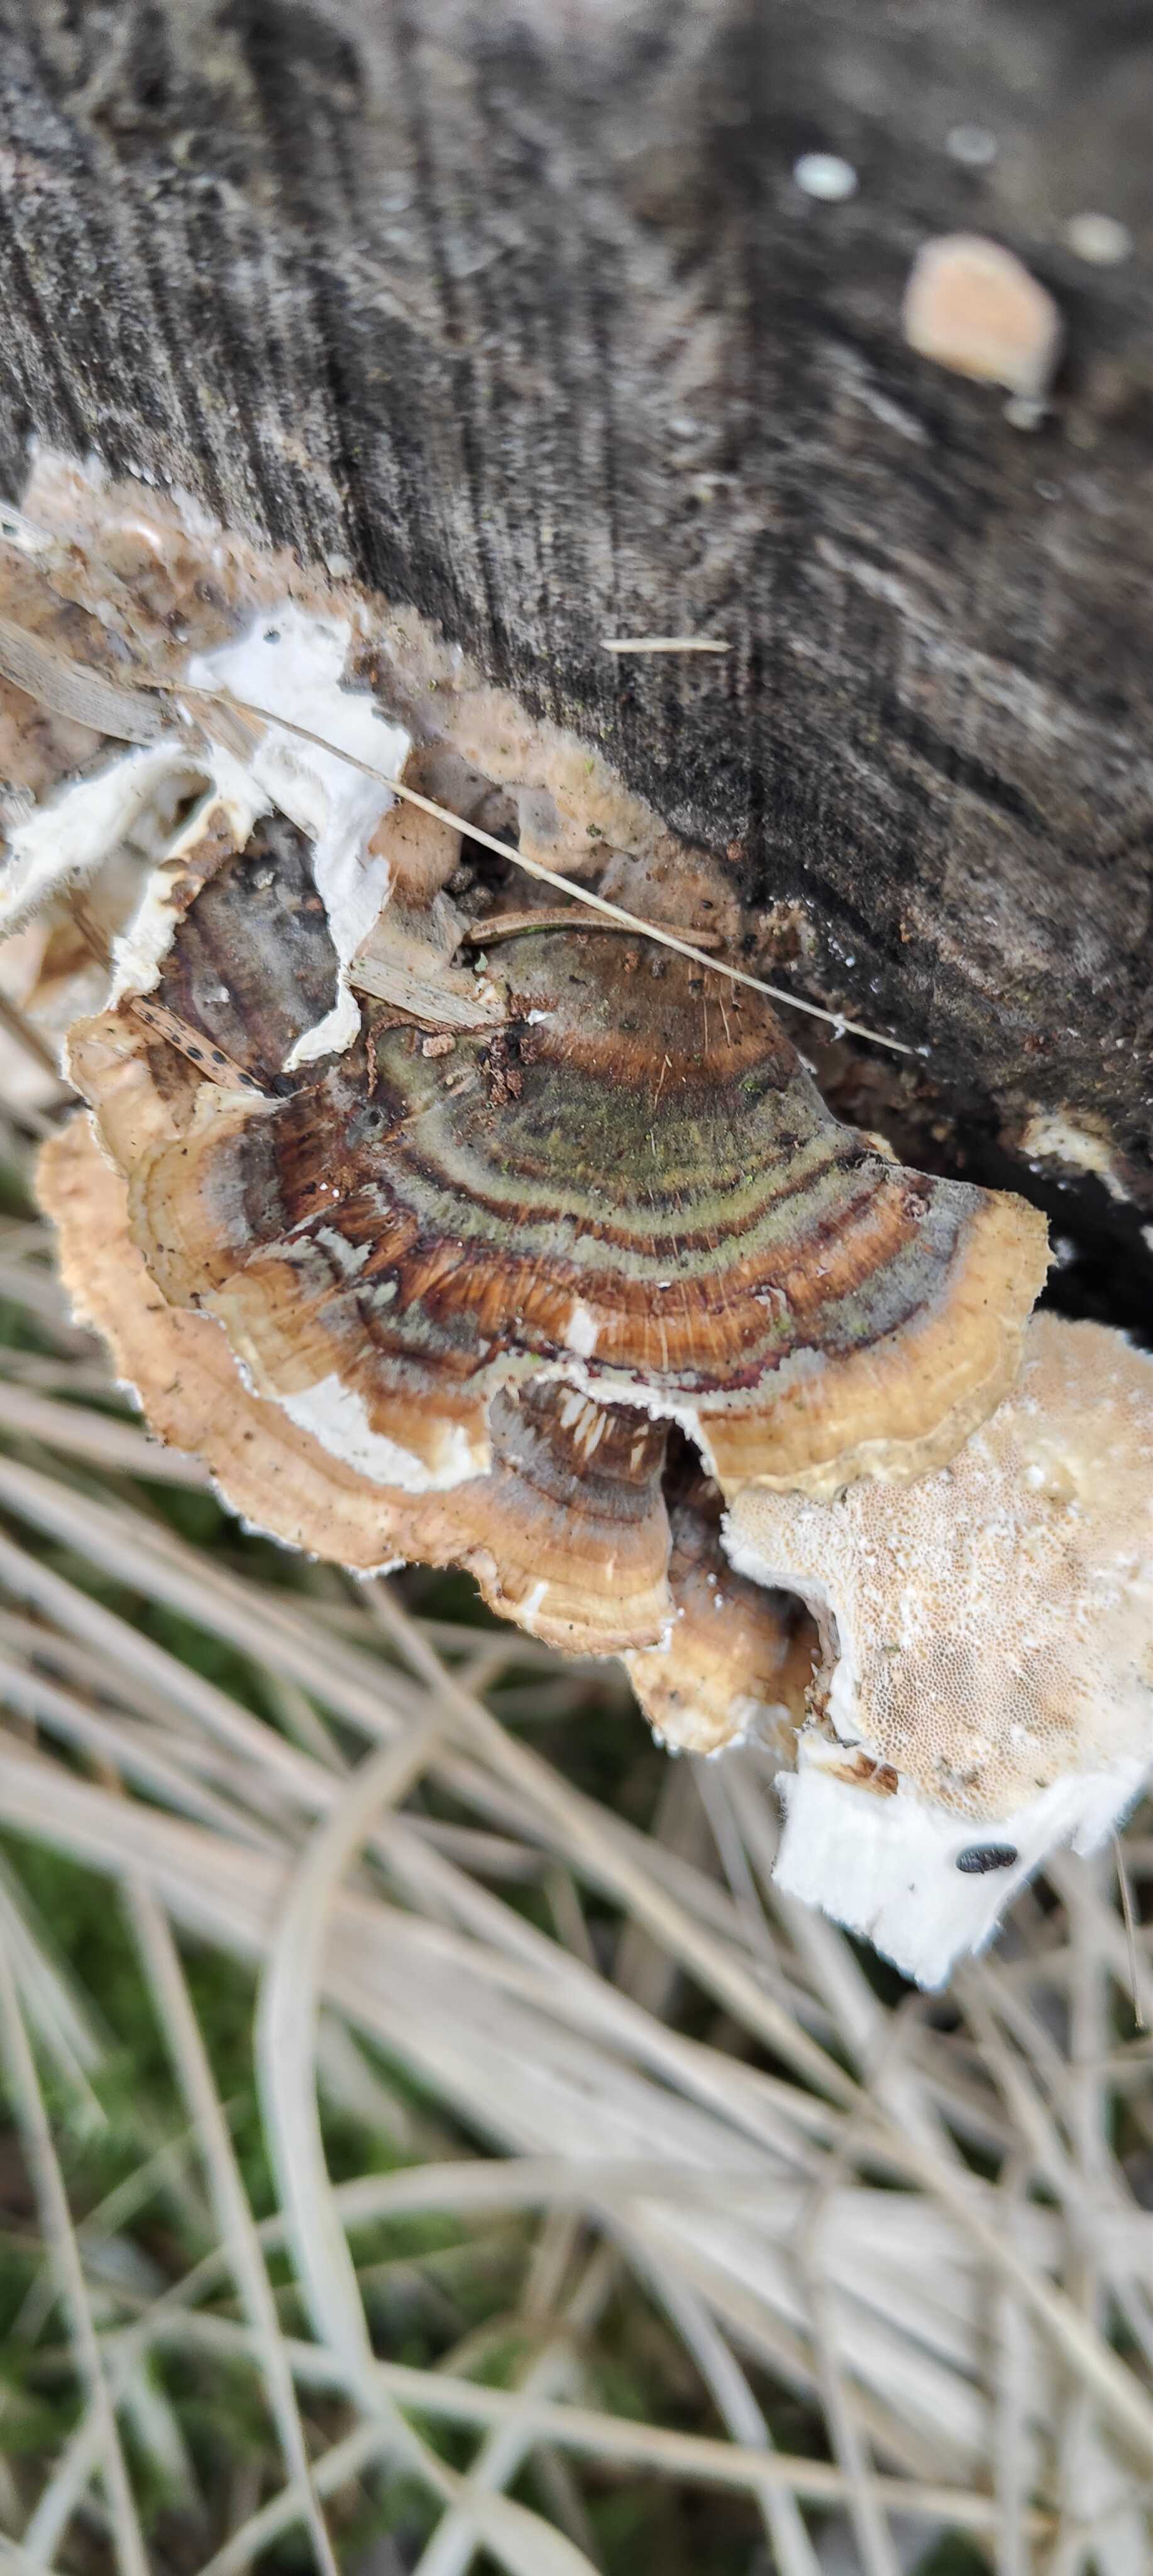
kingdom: Fungi
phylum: Basidiomycota
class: Agaricomycetes
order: Polyporales
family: Polyporaceae
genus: Trametes
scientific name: Trametes versicolor
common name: broget læderporesvamp
